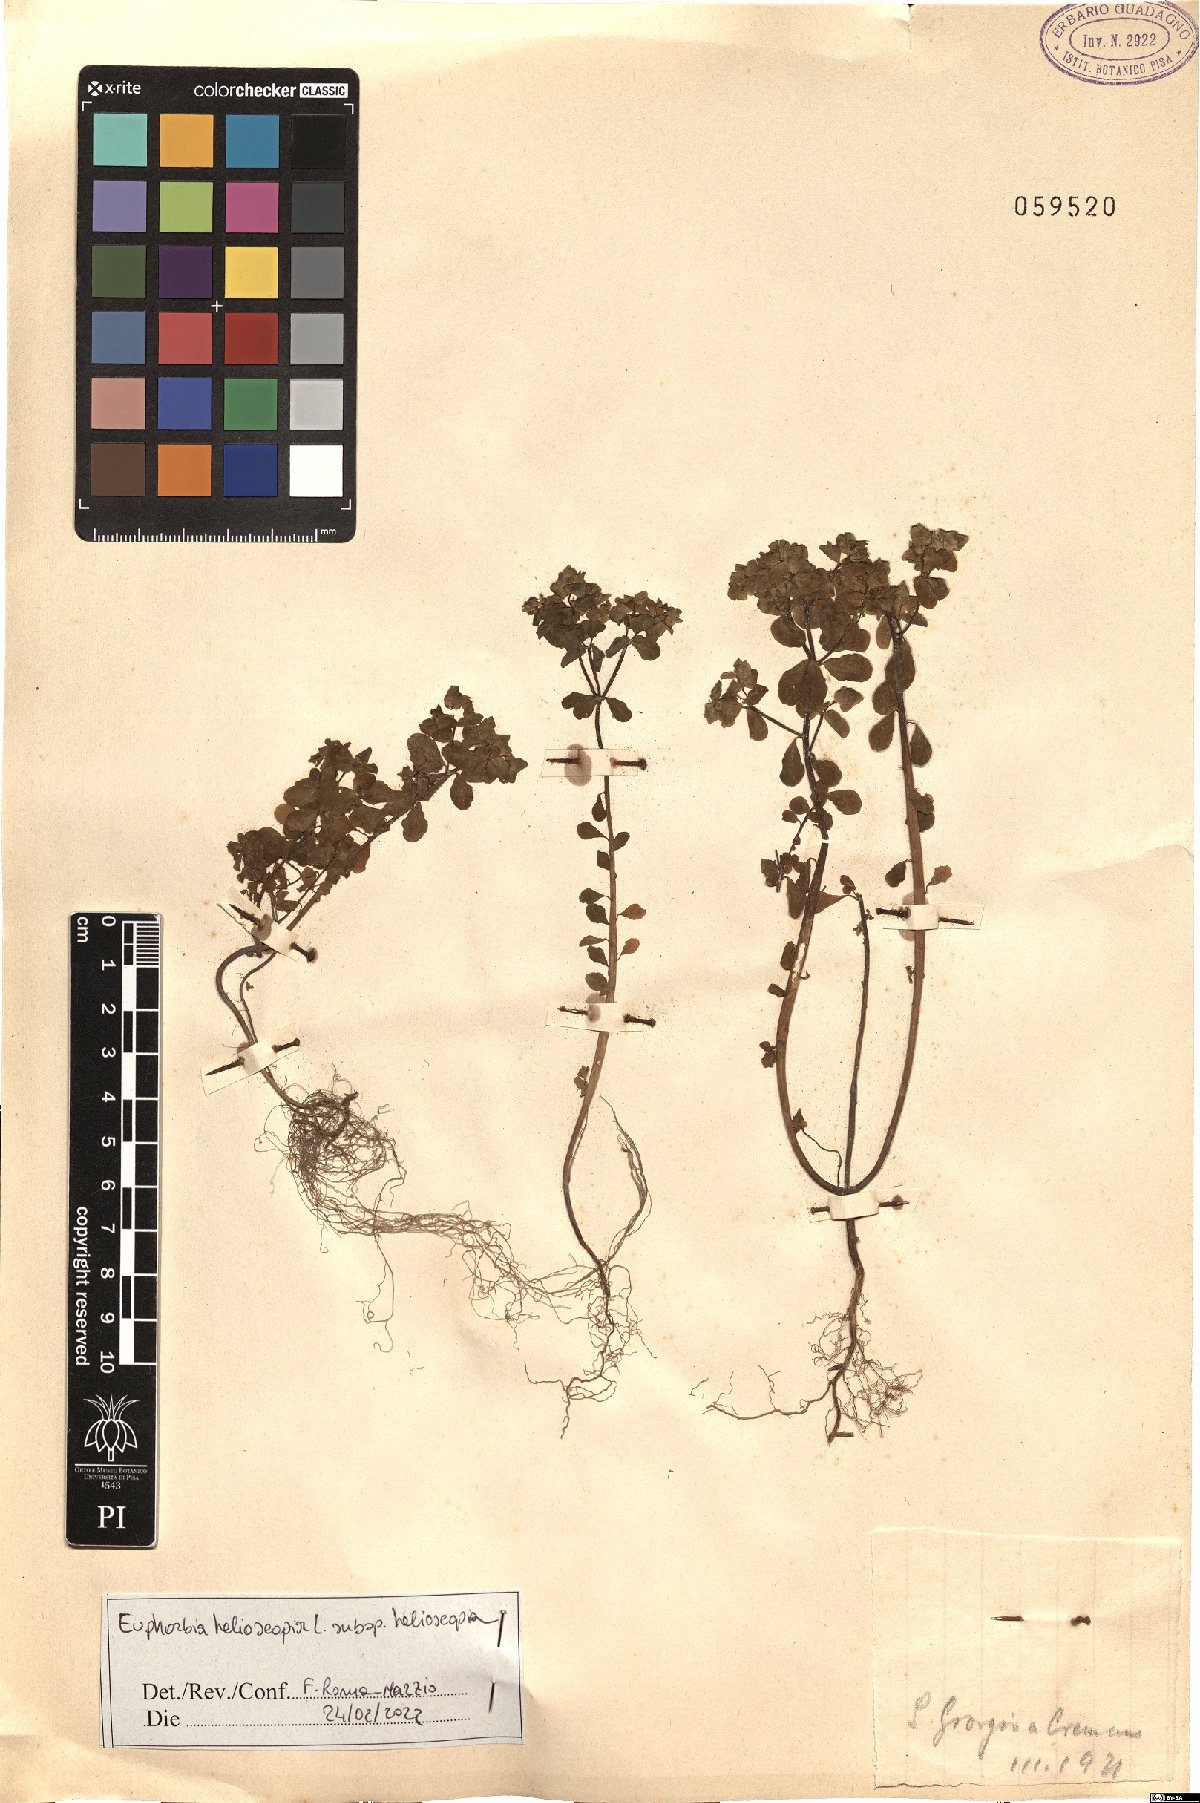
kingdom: Plantae
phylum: Tracheophyta
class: Magnoliopsida
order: Malpighiales
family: Euphorbiaceae
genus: Euphorbia
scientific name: Euphorbia helioscopia
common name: Sun spurge
